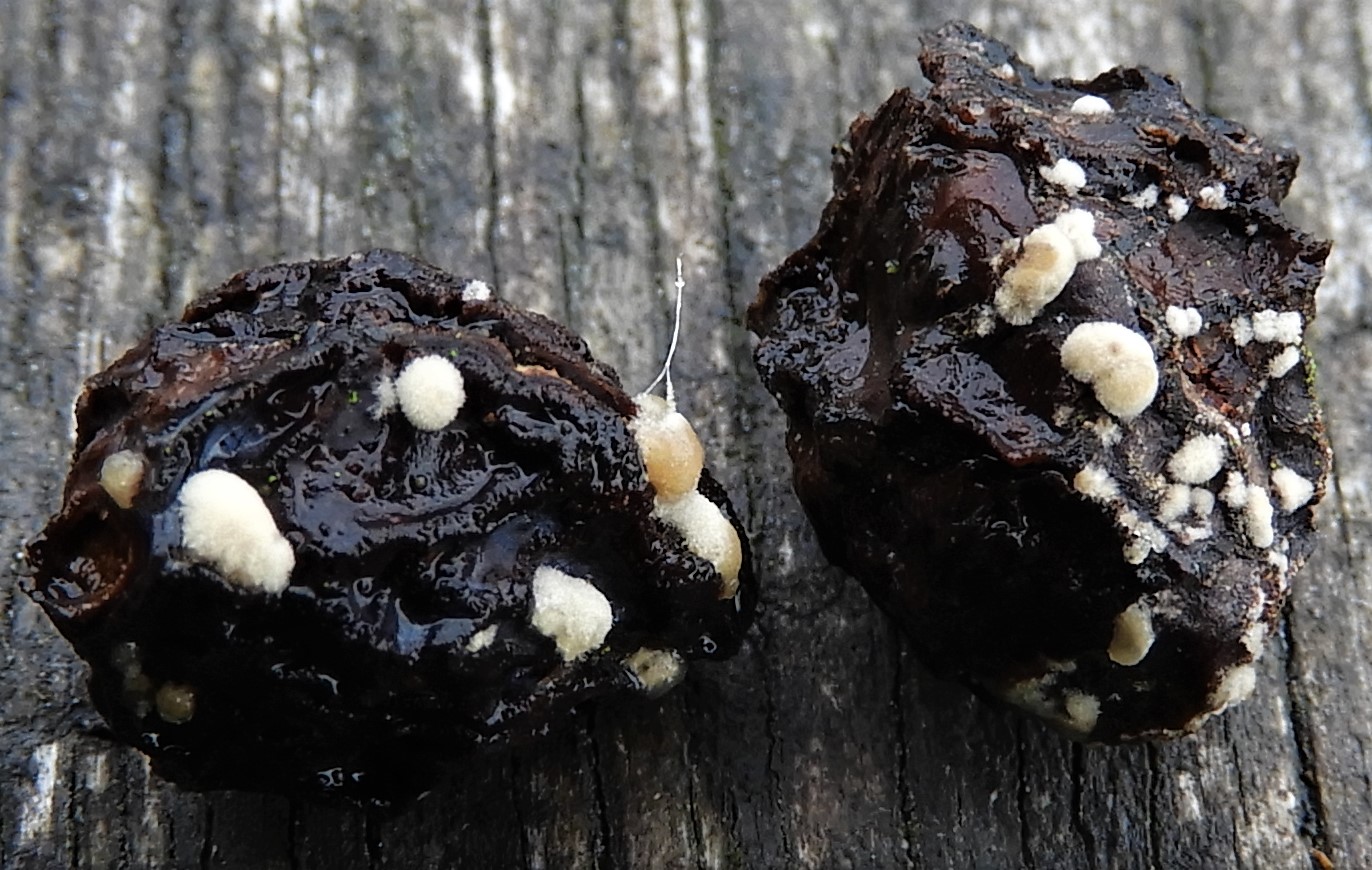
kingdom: Fungi
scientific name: Fungi
